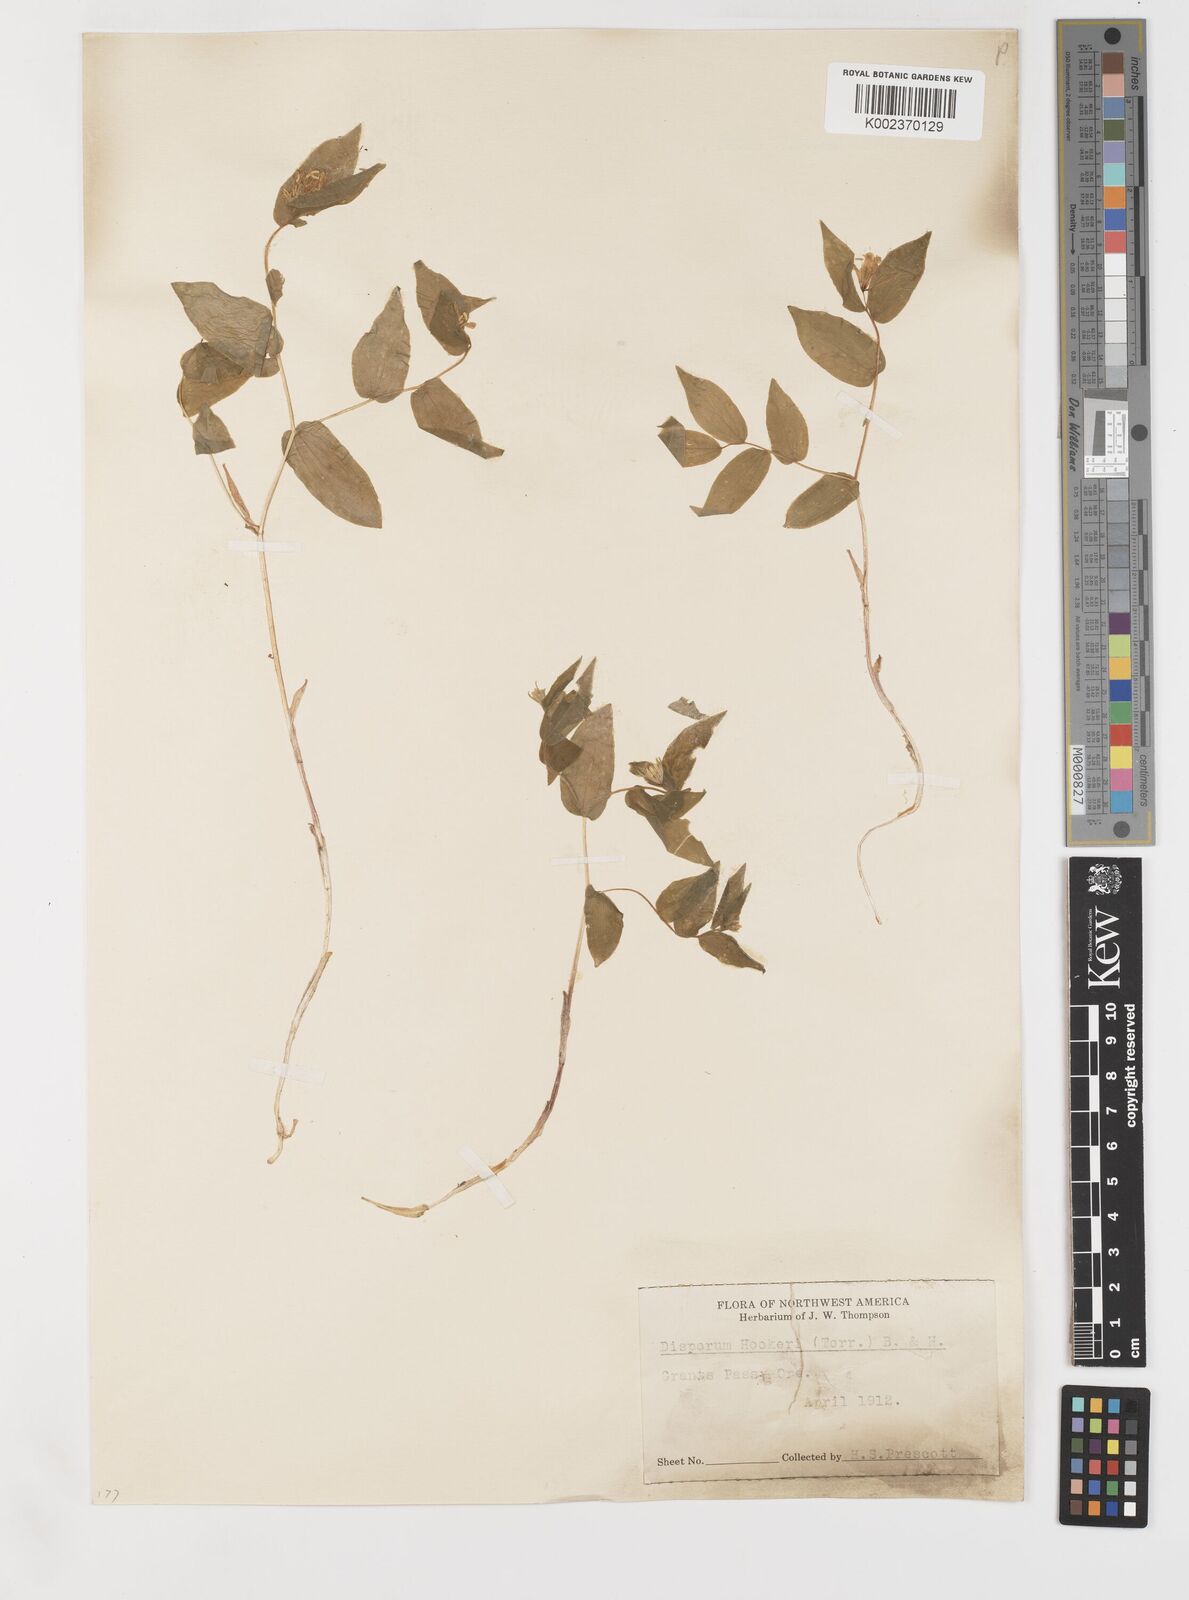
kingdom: Plantae
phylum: Tracheophyta
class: Liliopsida
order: Liliales
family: Liliaceae
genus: Prosartes
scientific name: Prosartes hookeri
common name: Fairy-bells
